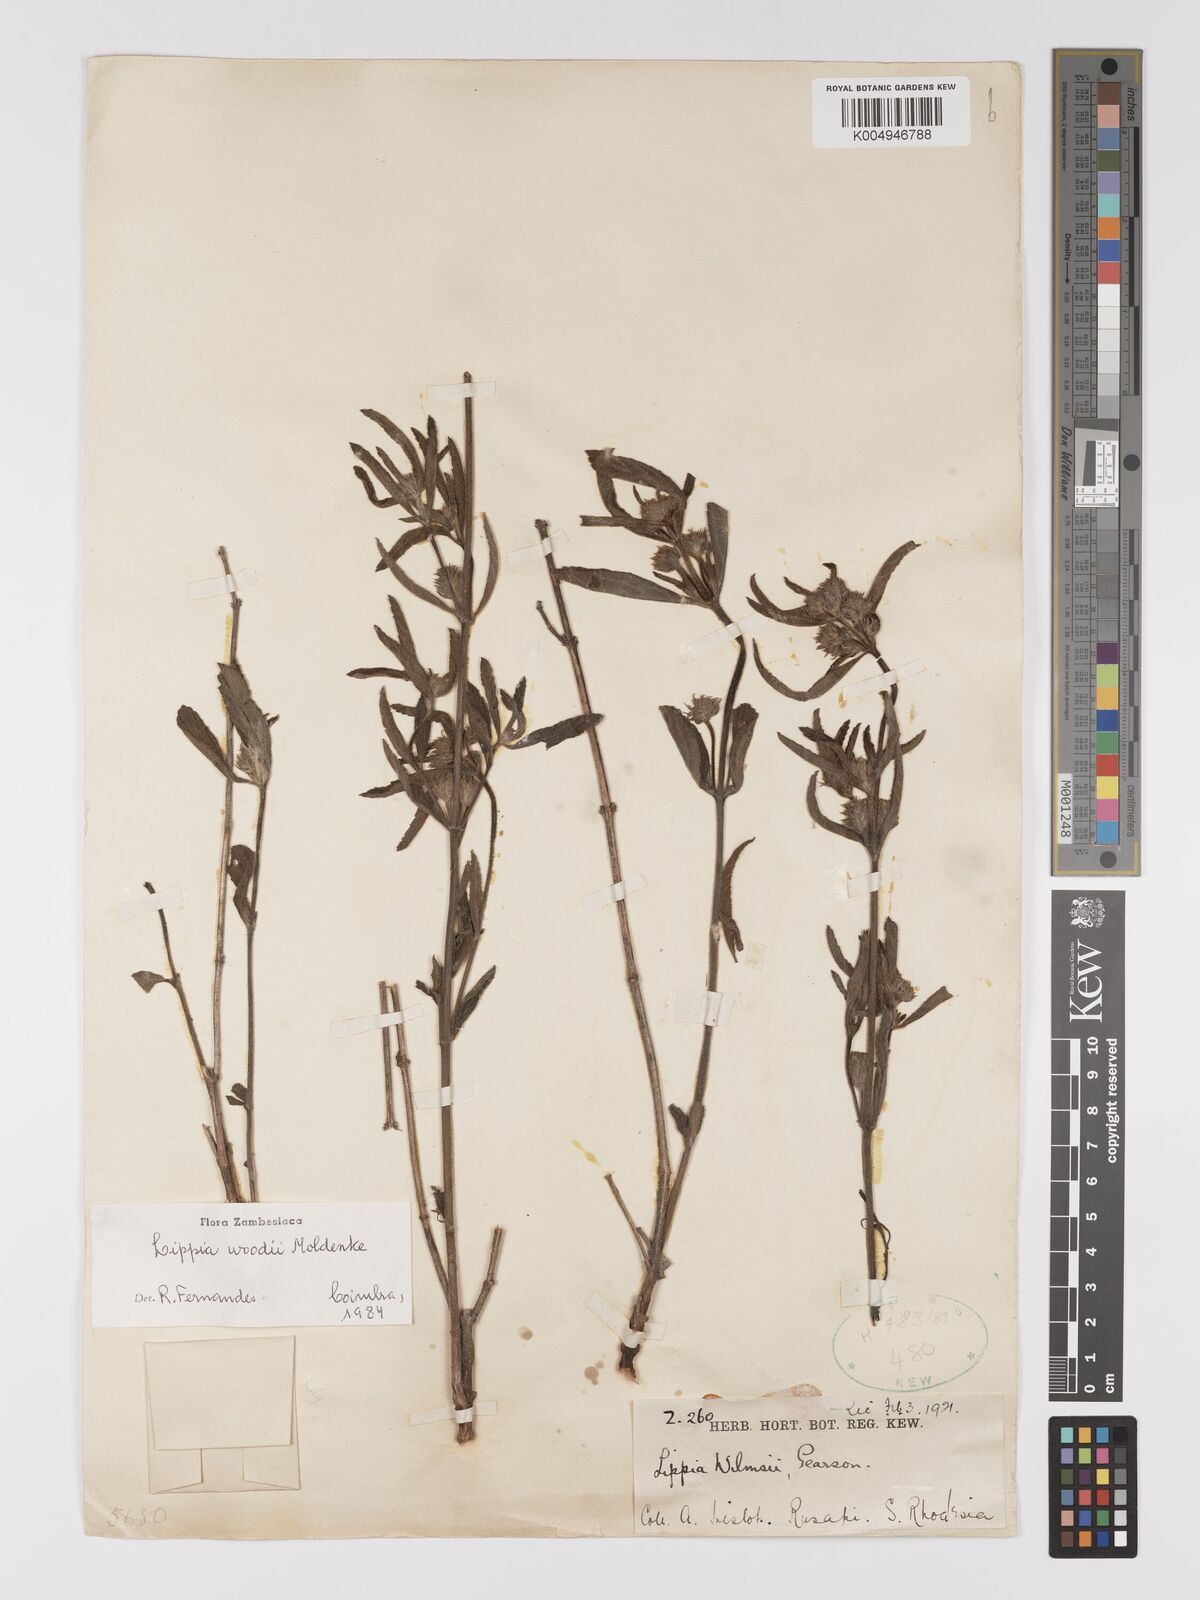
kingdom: Plantae
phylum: Tracheophyta
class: Magnoliopsida
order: Lamiales
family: Verbenaceae
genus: Lippia
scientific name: Lippia woodii
